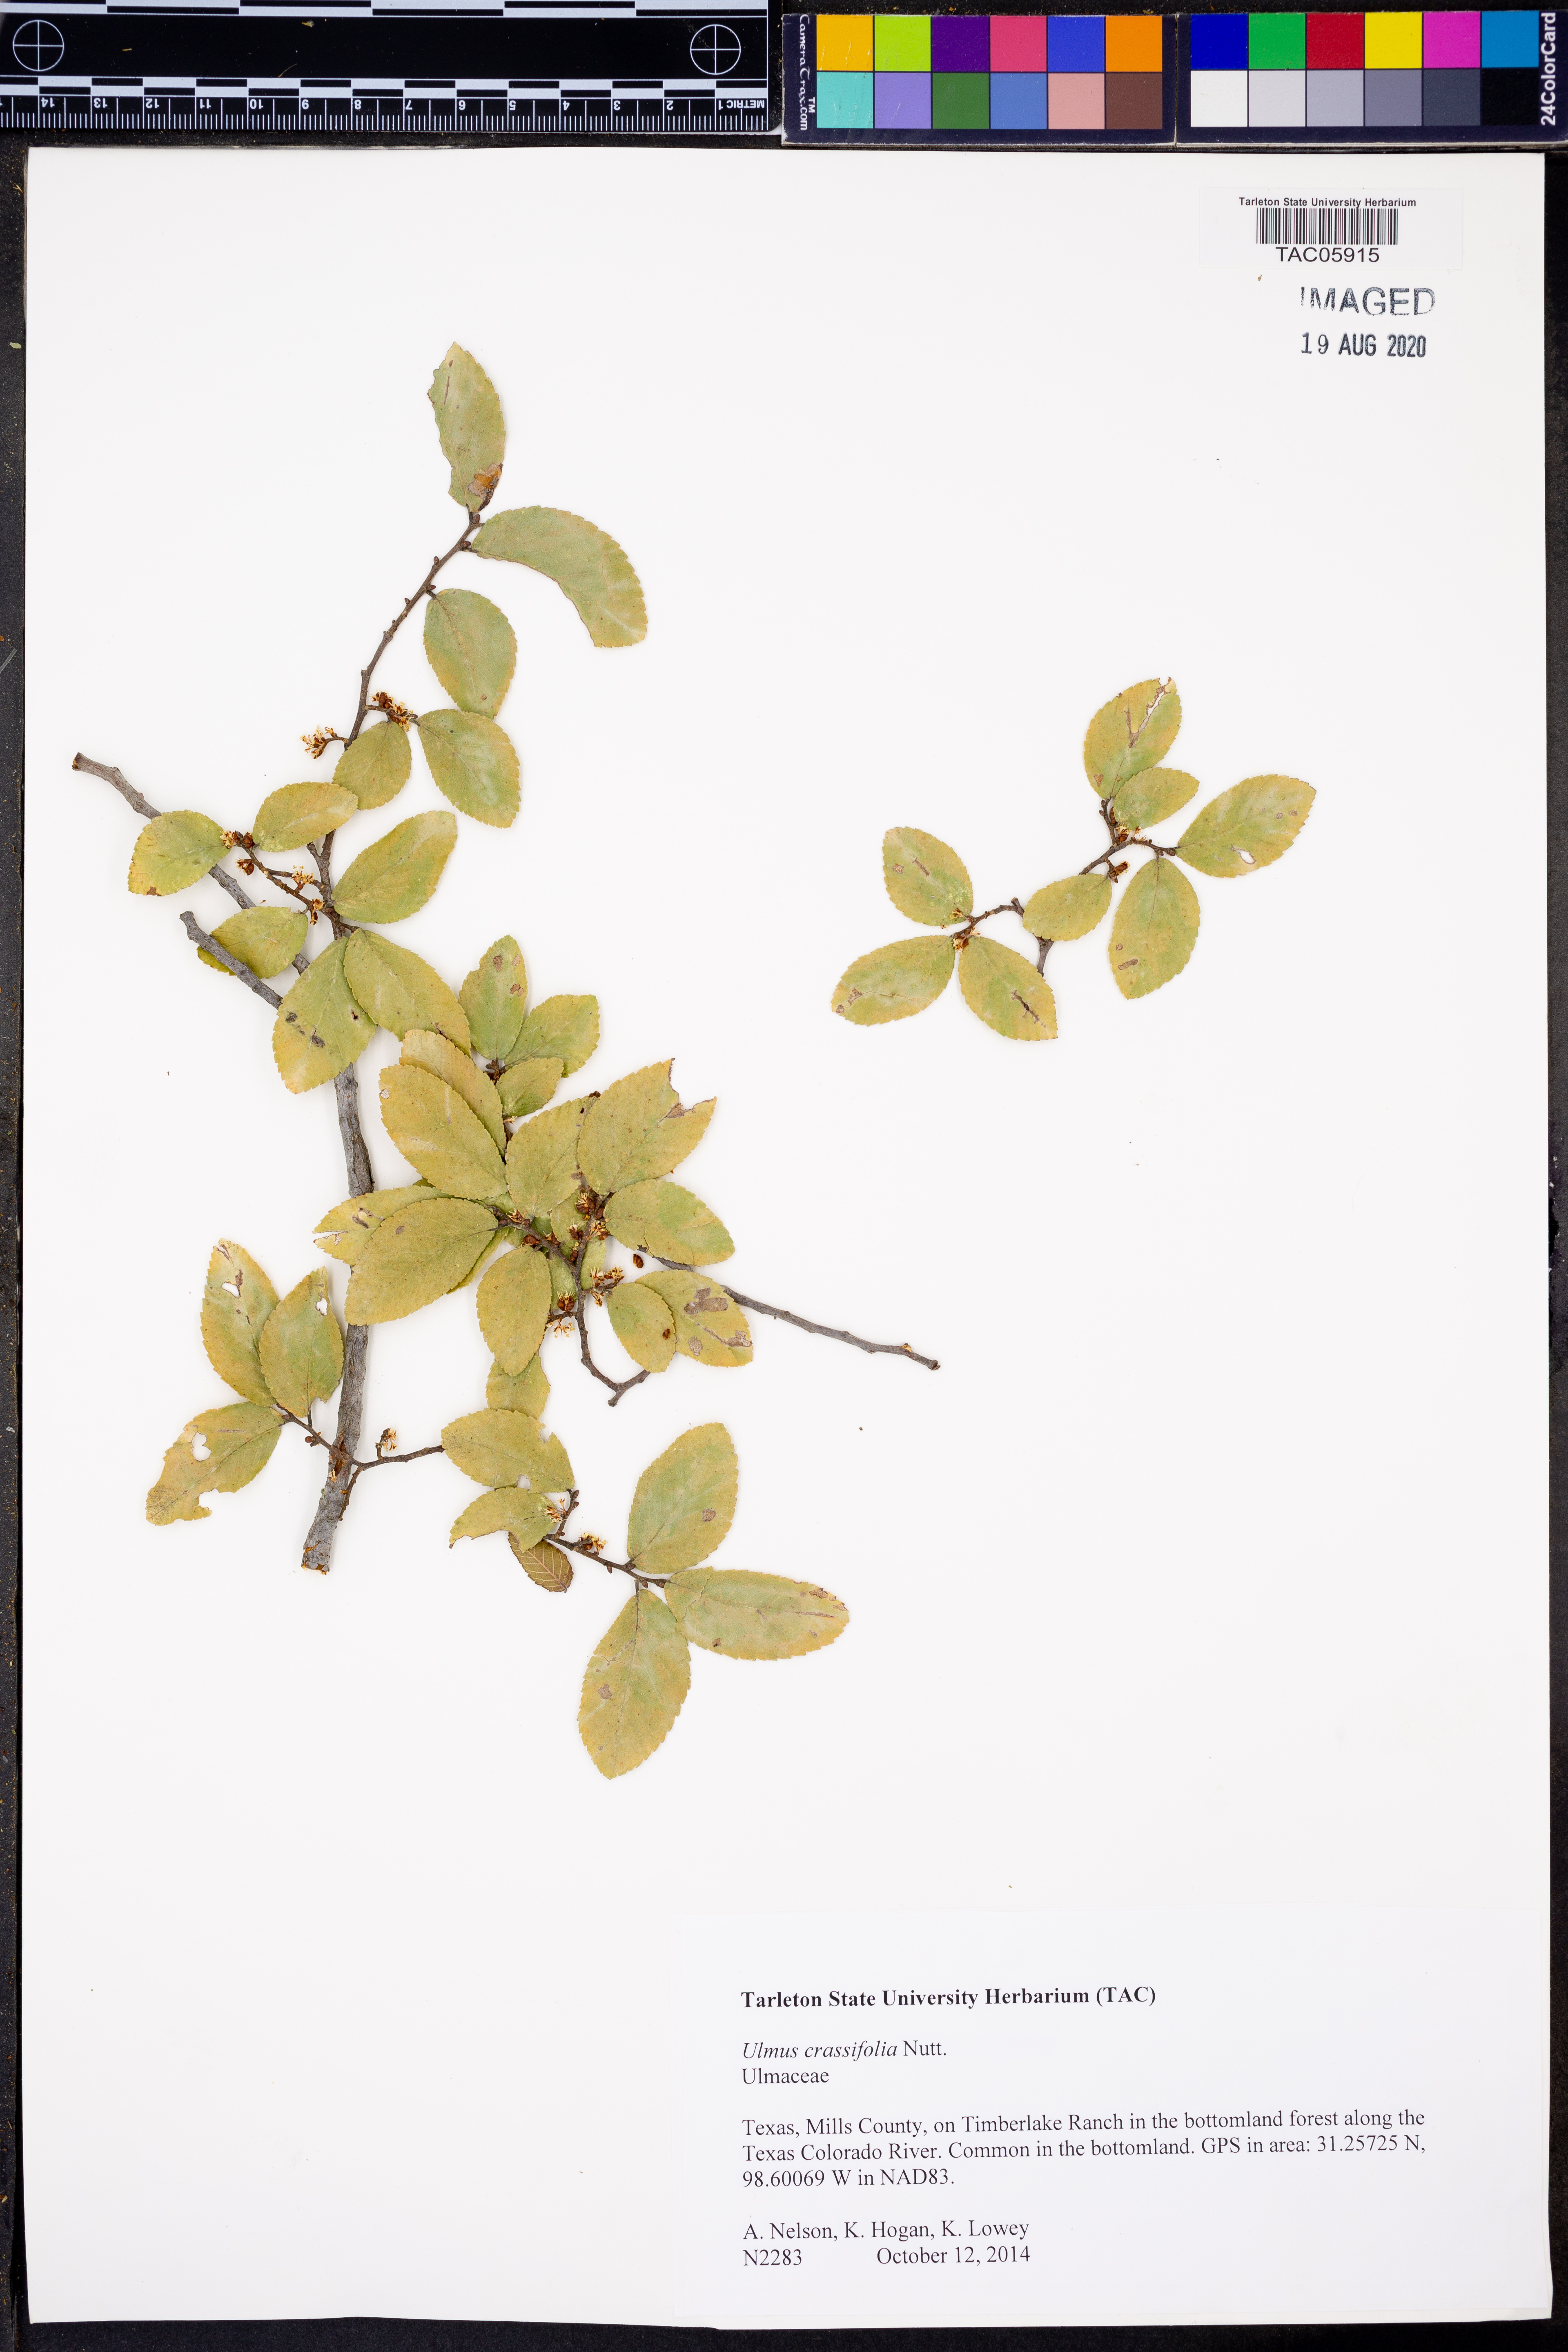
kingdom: Plantae
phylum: Tracheophyta
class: Magnoliopsida
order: Rosales
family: Ulmaceae
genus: Ulmus
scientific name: Ulmus crassifolia
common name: Basket elm
